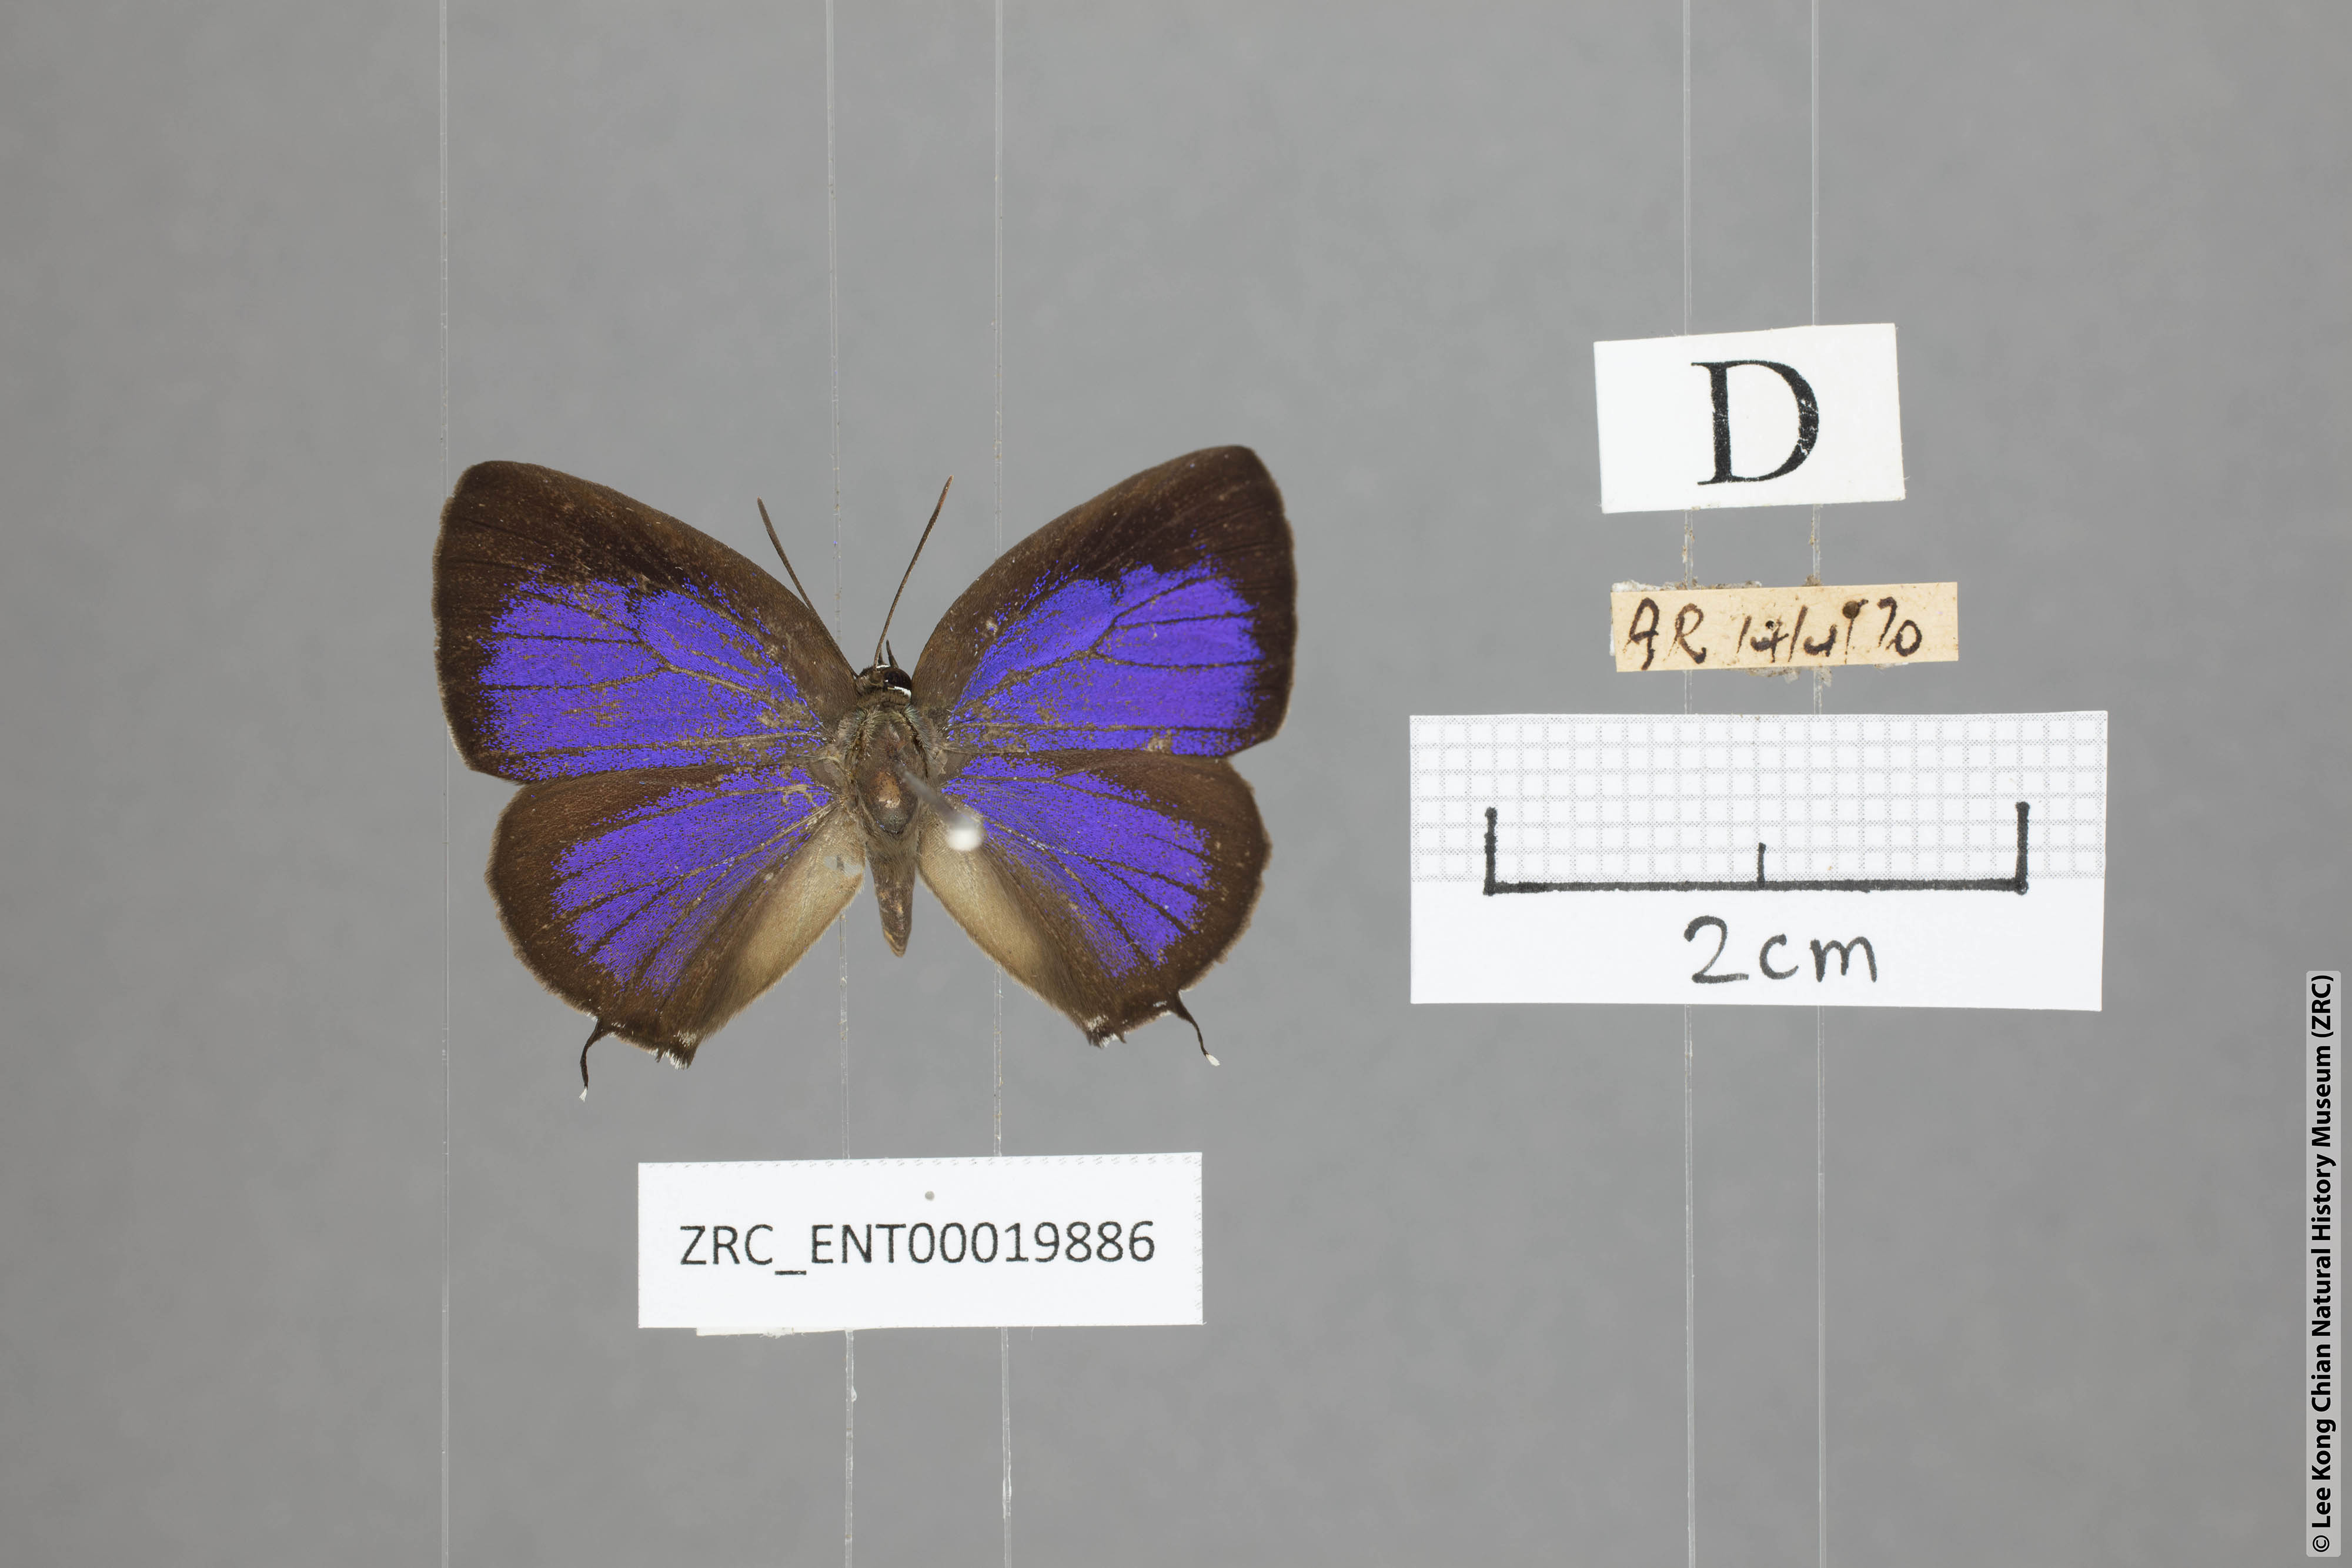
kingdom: Animalia
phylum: Arthropoda
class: Insecta
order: Lepidoptera
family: Lycaenidae
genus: Arhopala
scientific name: Arhopala sublustris
